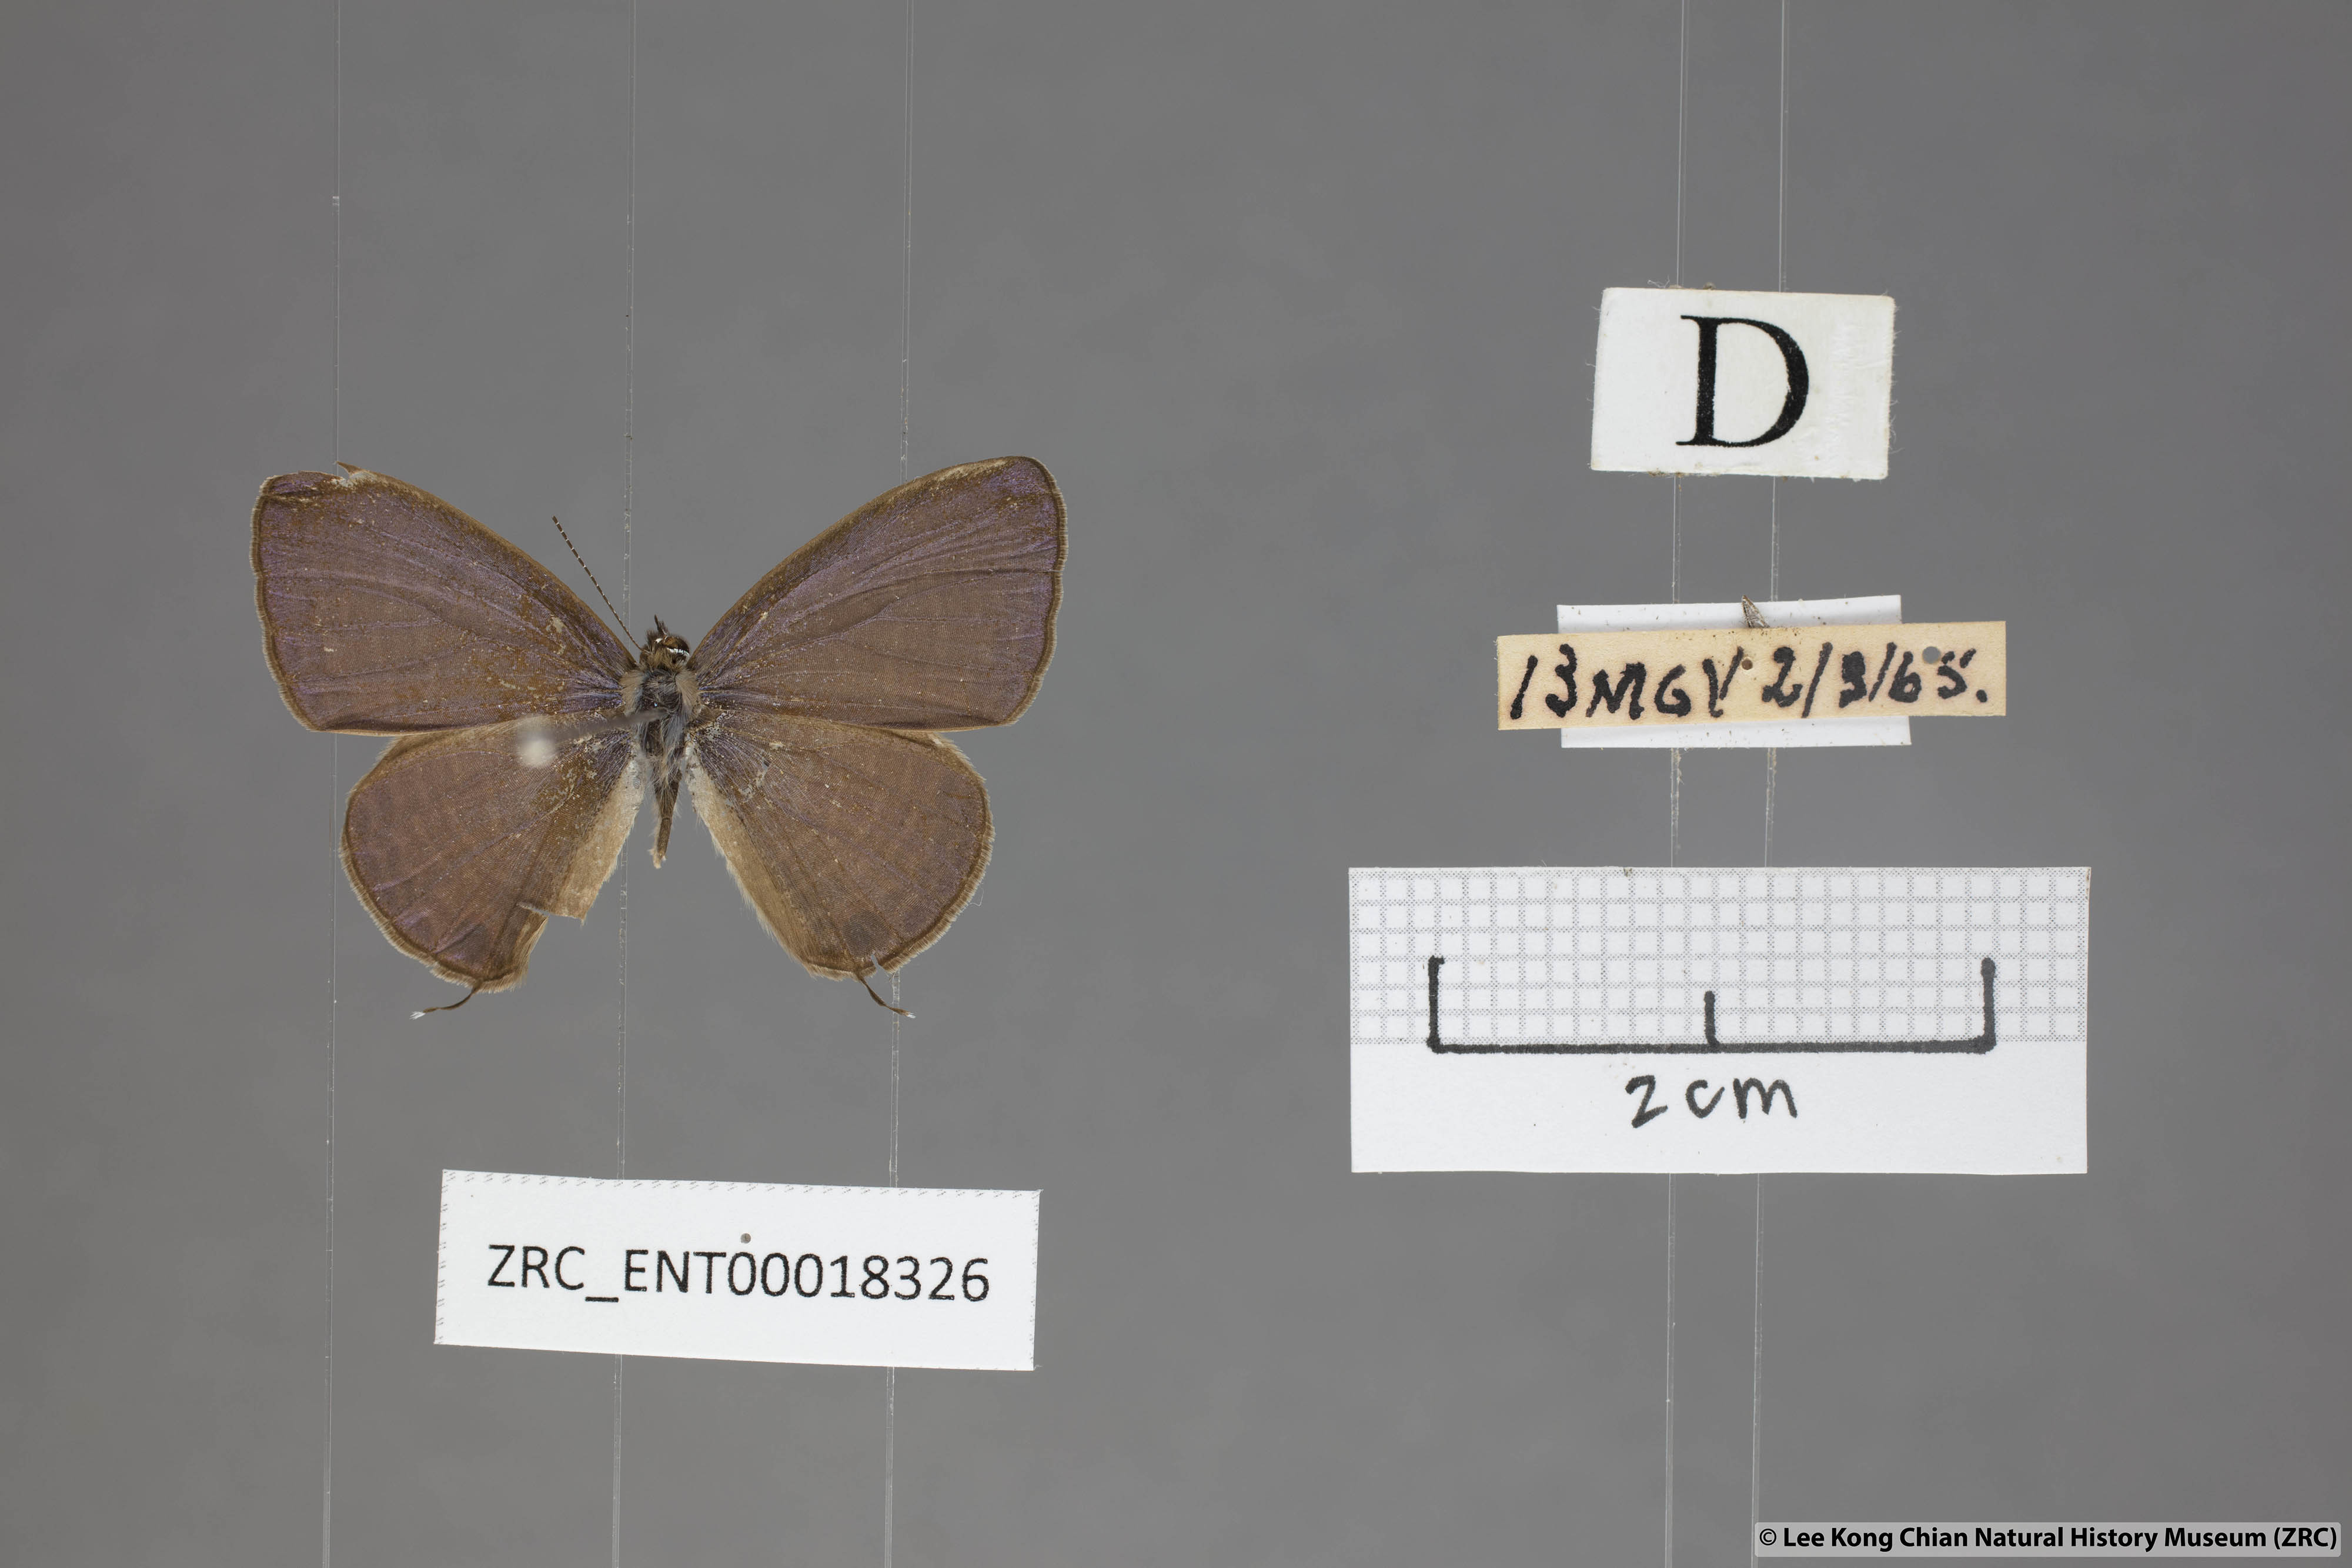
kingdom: Animalia
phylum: Arthropoda
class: Insecta
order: Lepidoptera
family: Lycaenidae
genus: Nacaduba
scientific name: Nacaduba beroe
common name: Opaque sixline blue
